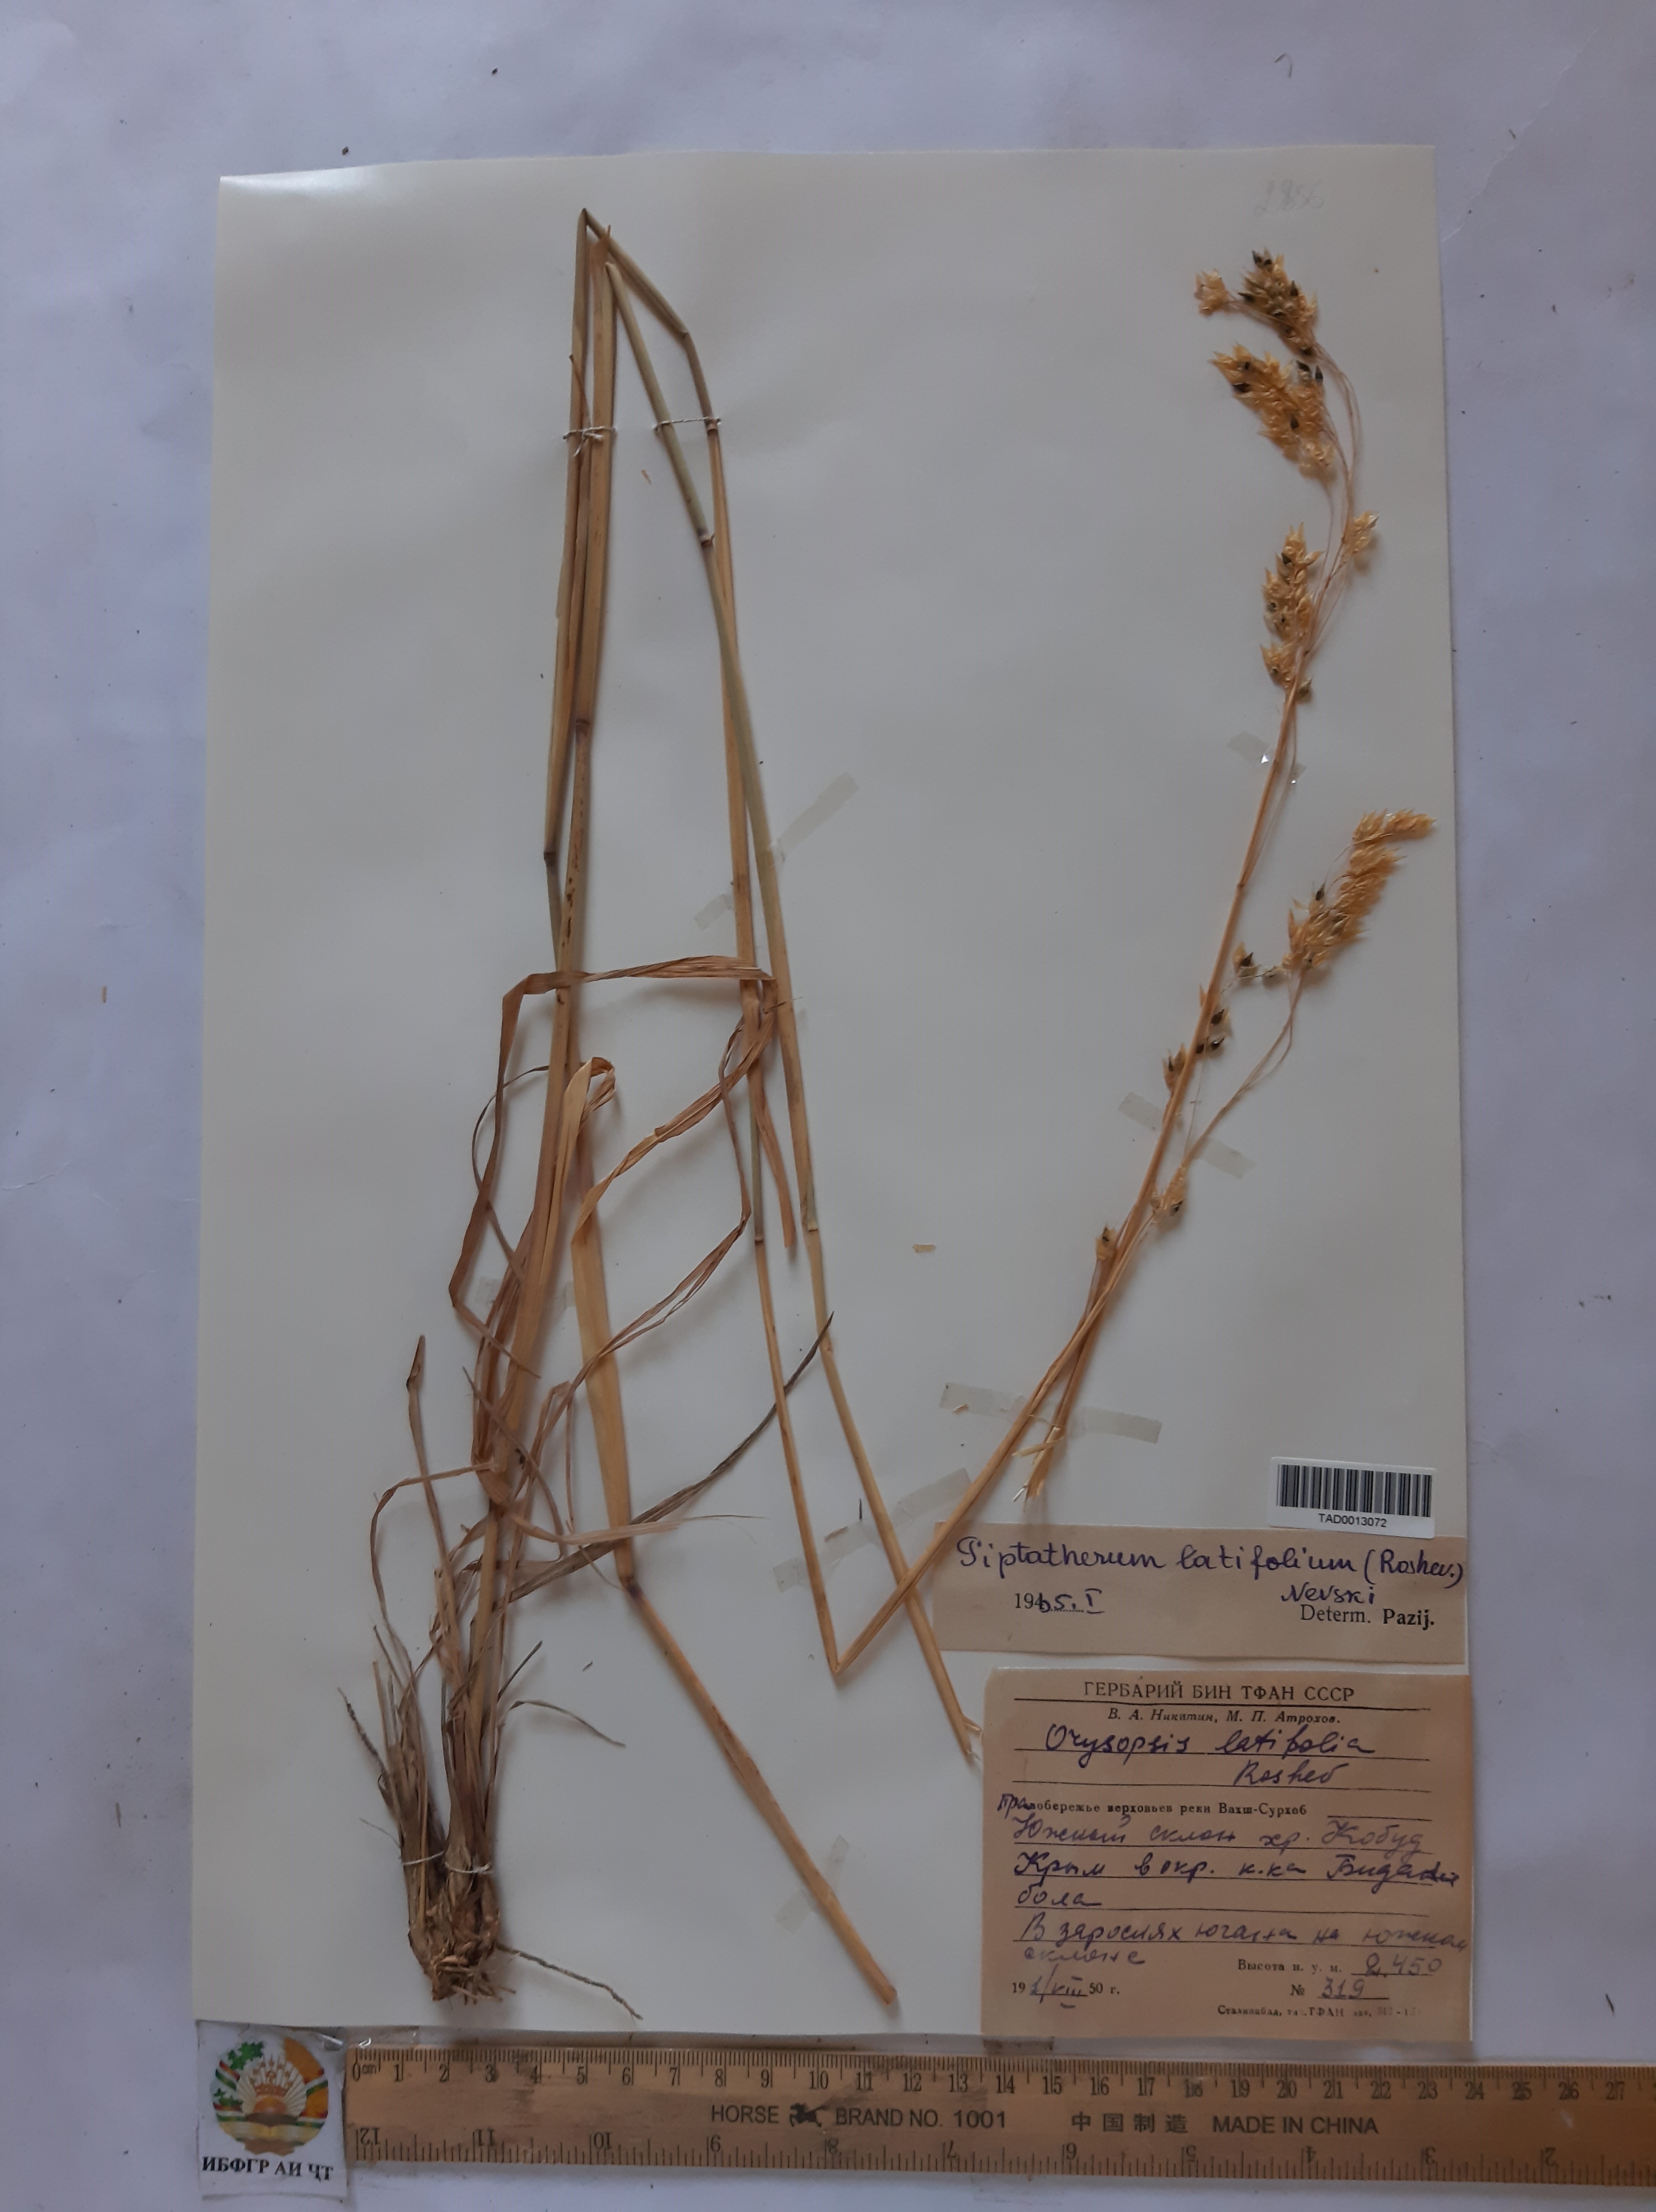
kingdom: Plantae
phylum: Tracheophyta
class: Liliopsida
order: Poales
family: Poaceae
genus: Piptatherum
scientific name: Piptatherum laterale
